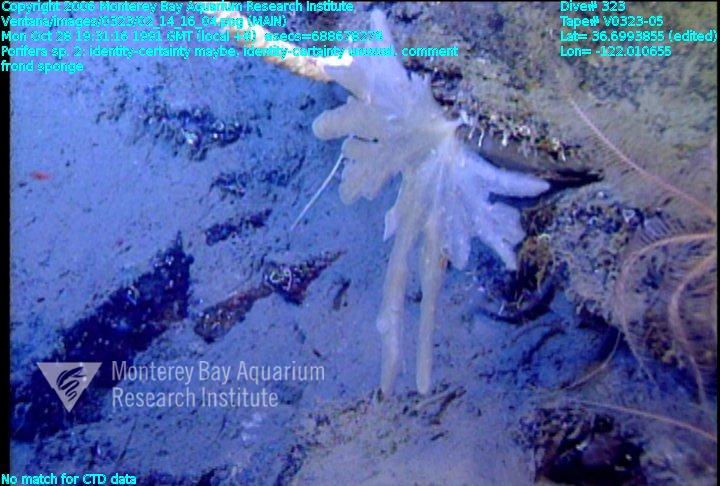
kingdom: Animalia
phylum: Porifera
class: Demospongiae
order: Poecilosclerida
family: Cladorhizidae
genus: Asbestopluma
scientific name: Asbestopluma
